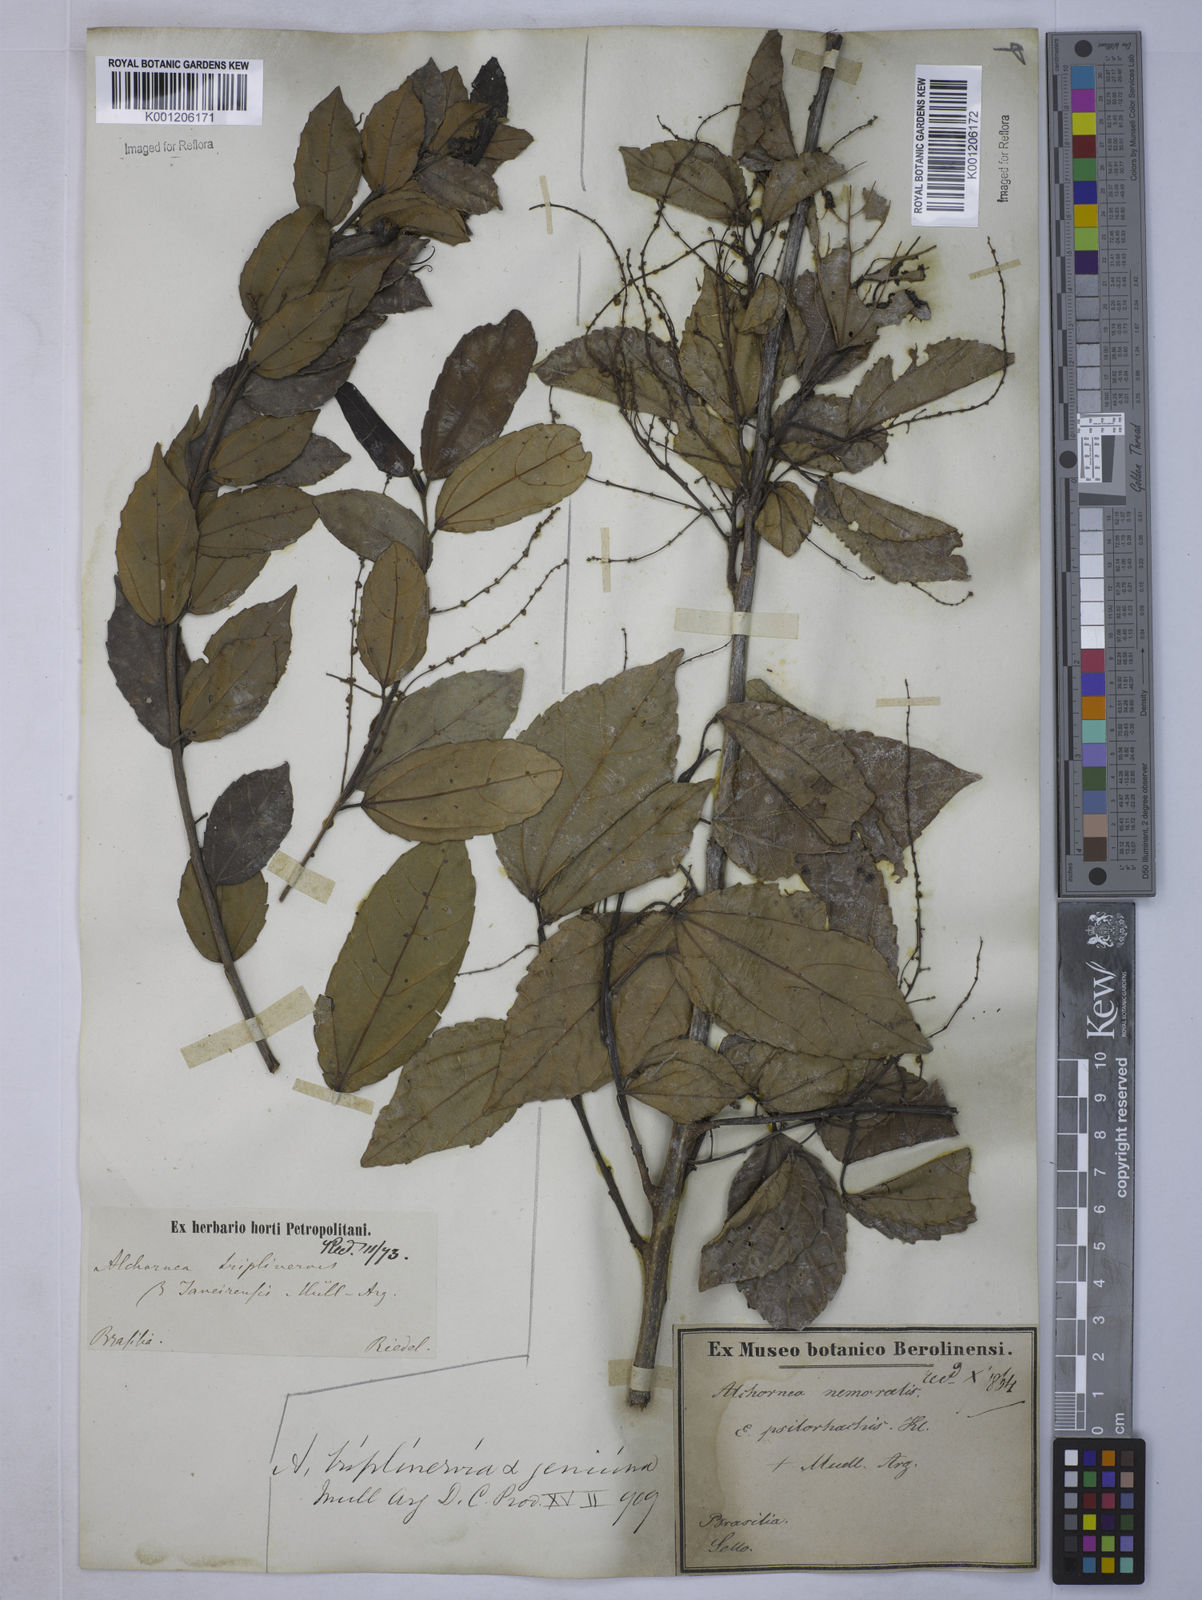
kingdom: Plantae
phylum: Tracheophyta
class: Magnoliopsida
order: Malpighiales
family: Euphorbiaceae
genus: Alchornea
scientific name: Alchornea triplinervia
